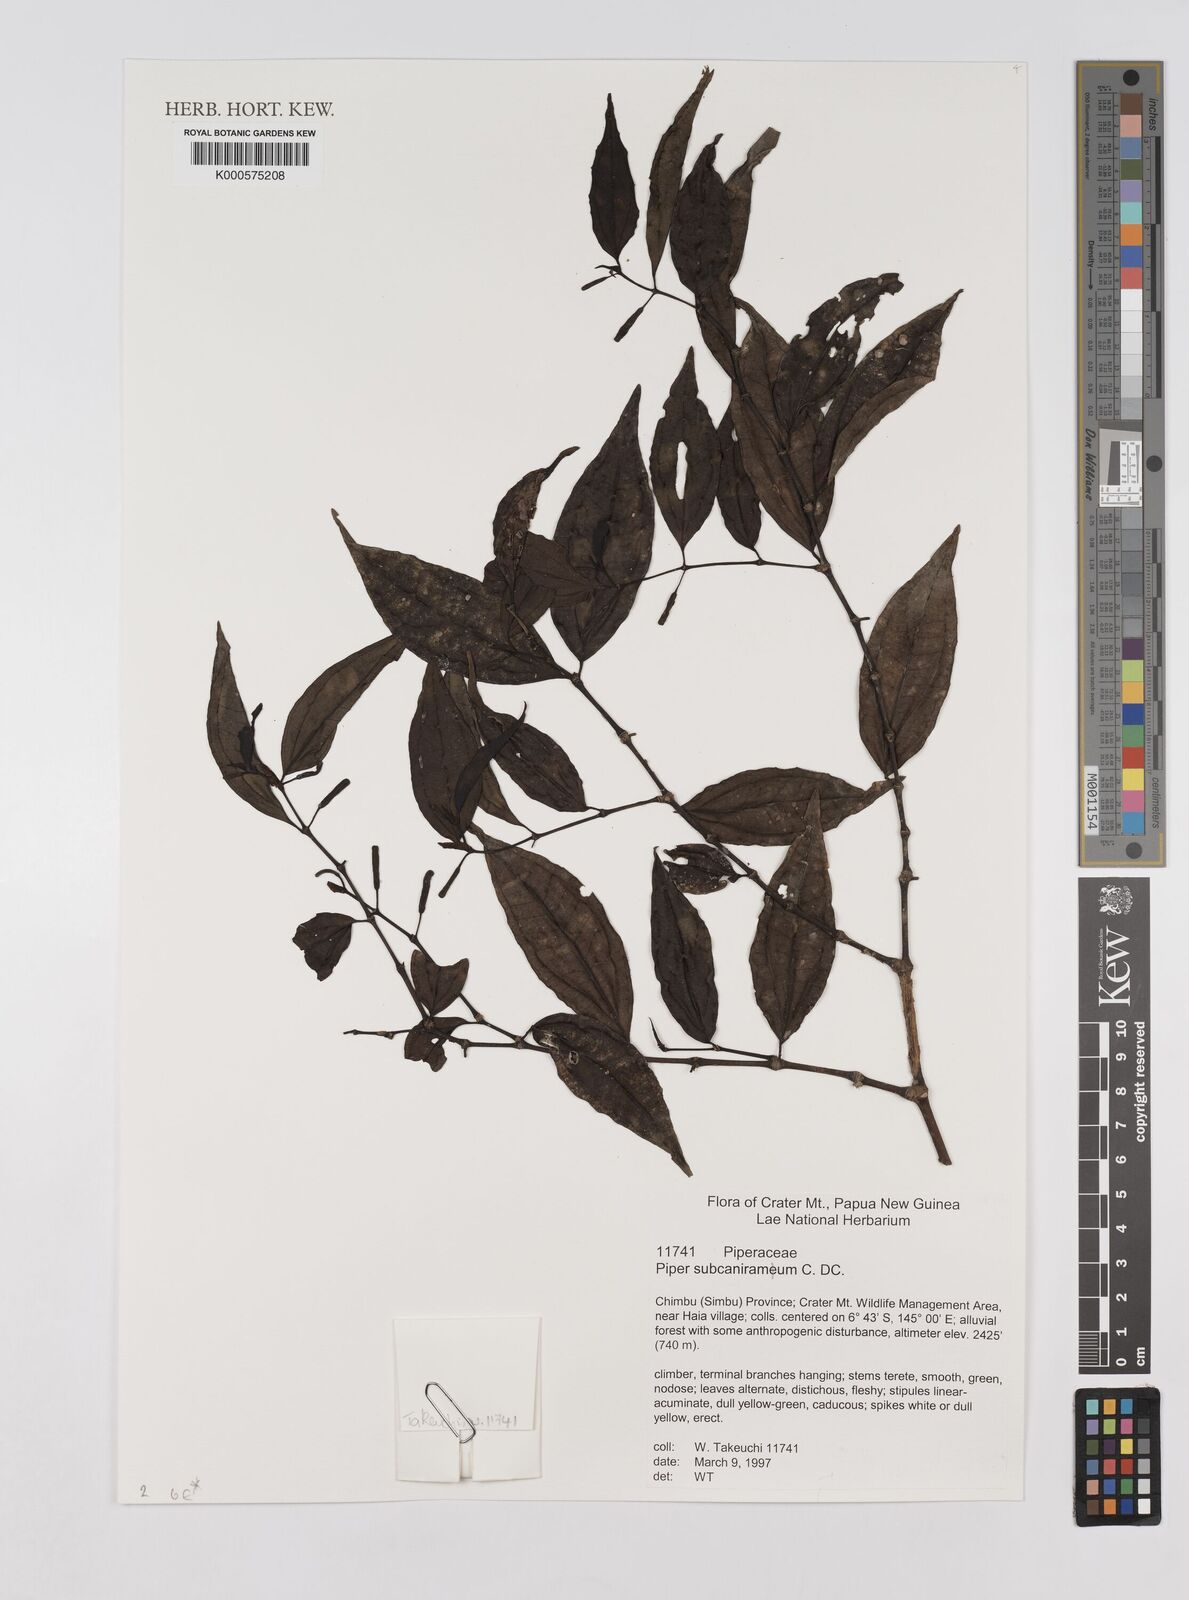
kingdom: Plantae
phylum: Tracheophyta
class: Magnoliopsida
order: Piperales
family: Piperaceae
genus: Piper
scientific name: Piper subcaniramum
